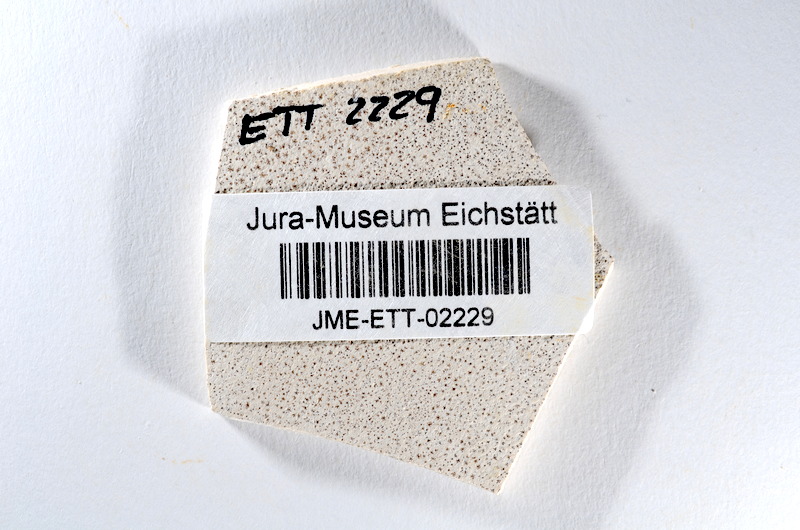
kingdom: Animalia
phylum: Chordata
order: Salmoniformes
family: Orthogonikleithridae
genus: Orthogonikleithrus
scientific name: Orthogonikleithrus hoelli
